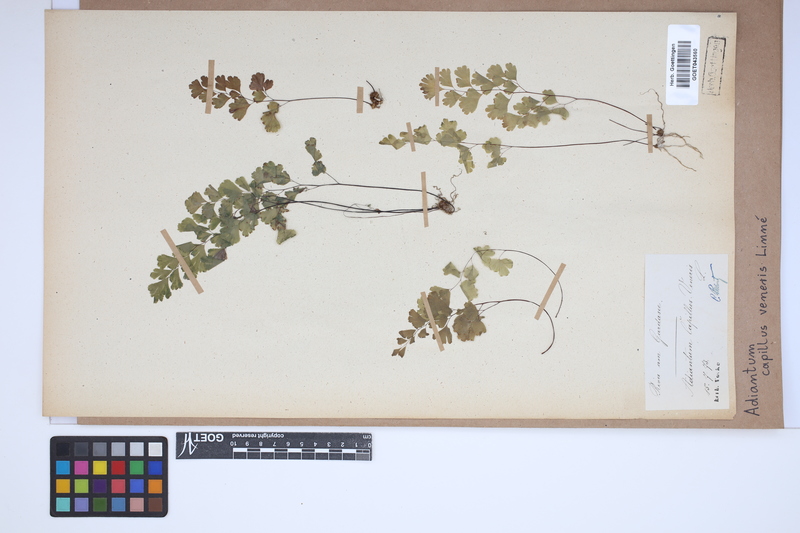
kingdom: Plantae
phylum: Tracheophyta
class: Polypodiopsida
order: Polypodiales
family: Pteridaceae
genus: Adiantum
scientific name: Adiantum capillus-veneris
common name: Maidenhair fern
